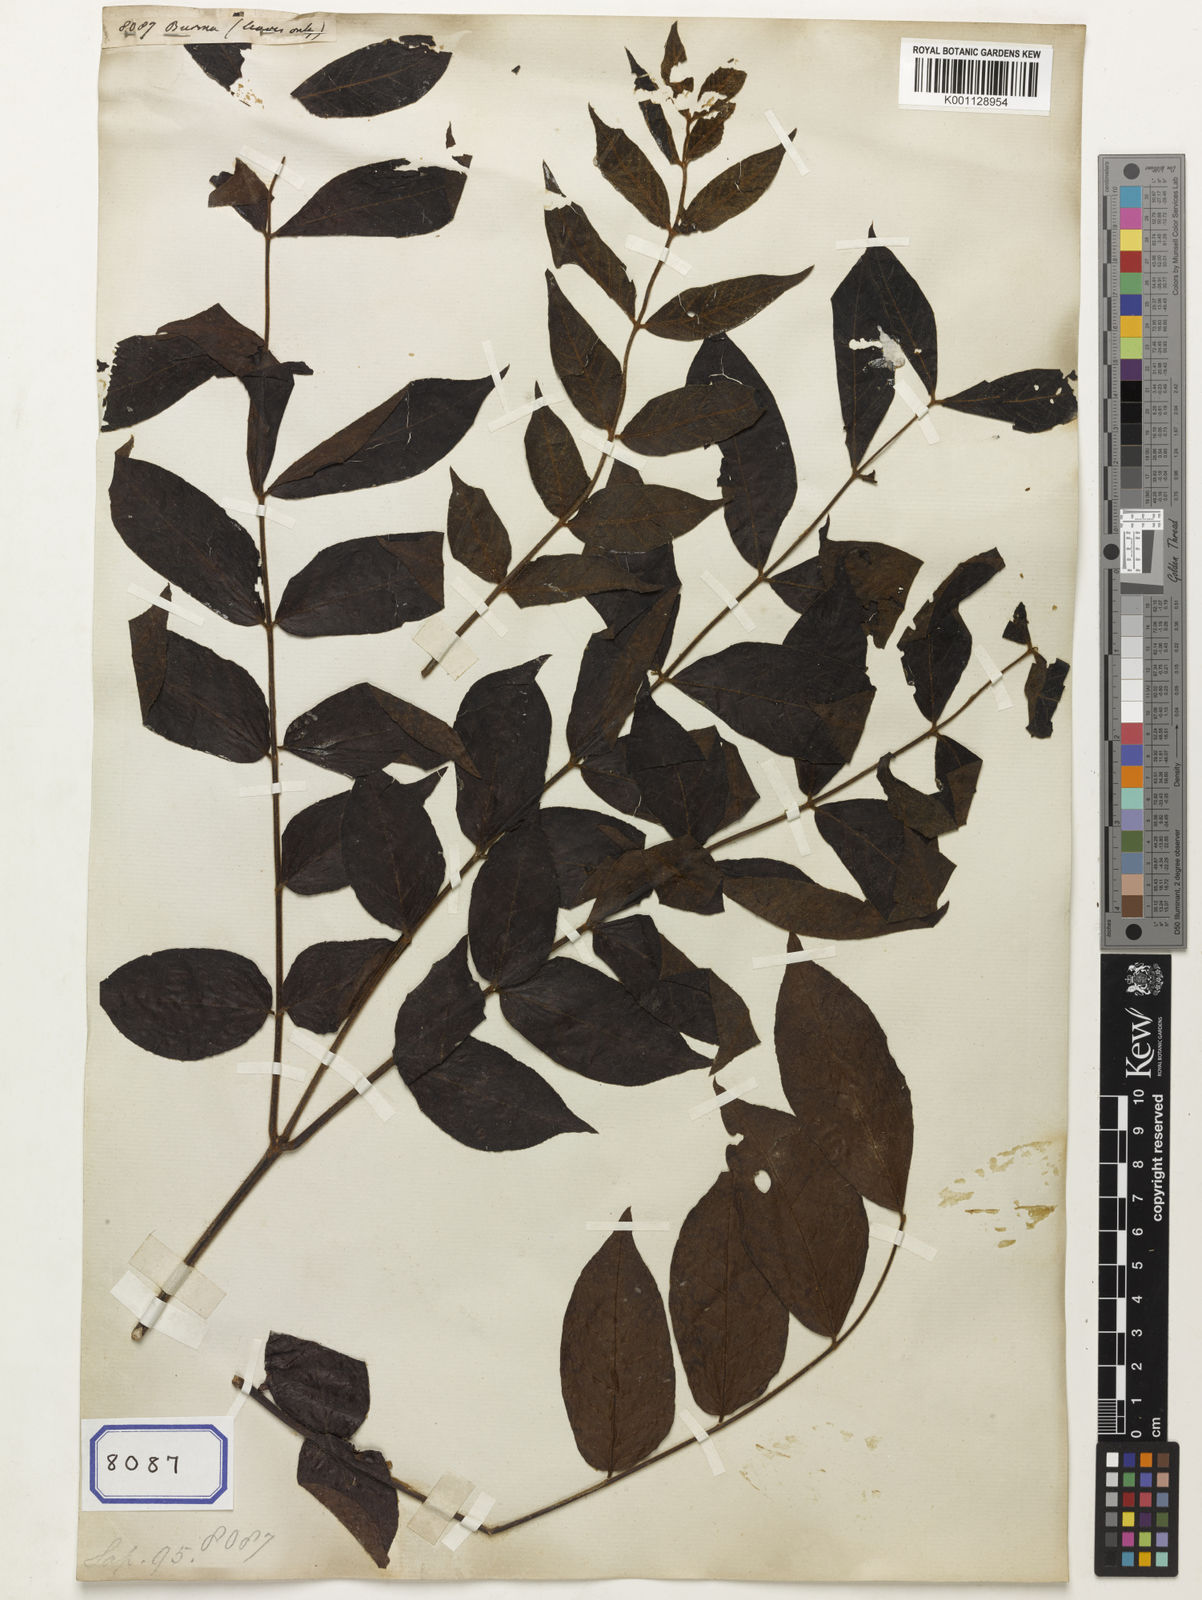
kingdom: Plantae
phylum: Tracheophyta
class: Magnoliopsida
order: Sapindales
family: Sapindaceae
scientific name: Sapindaceae
